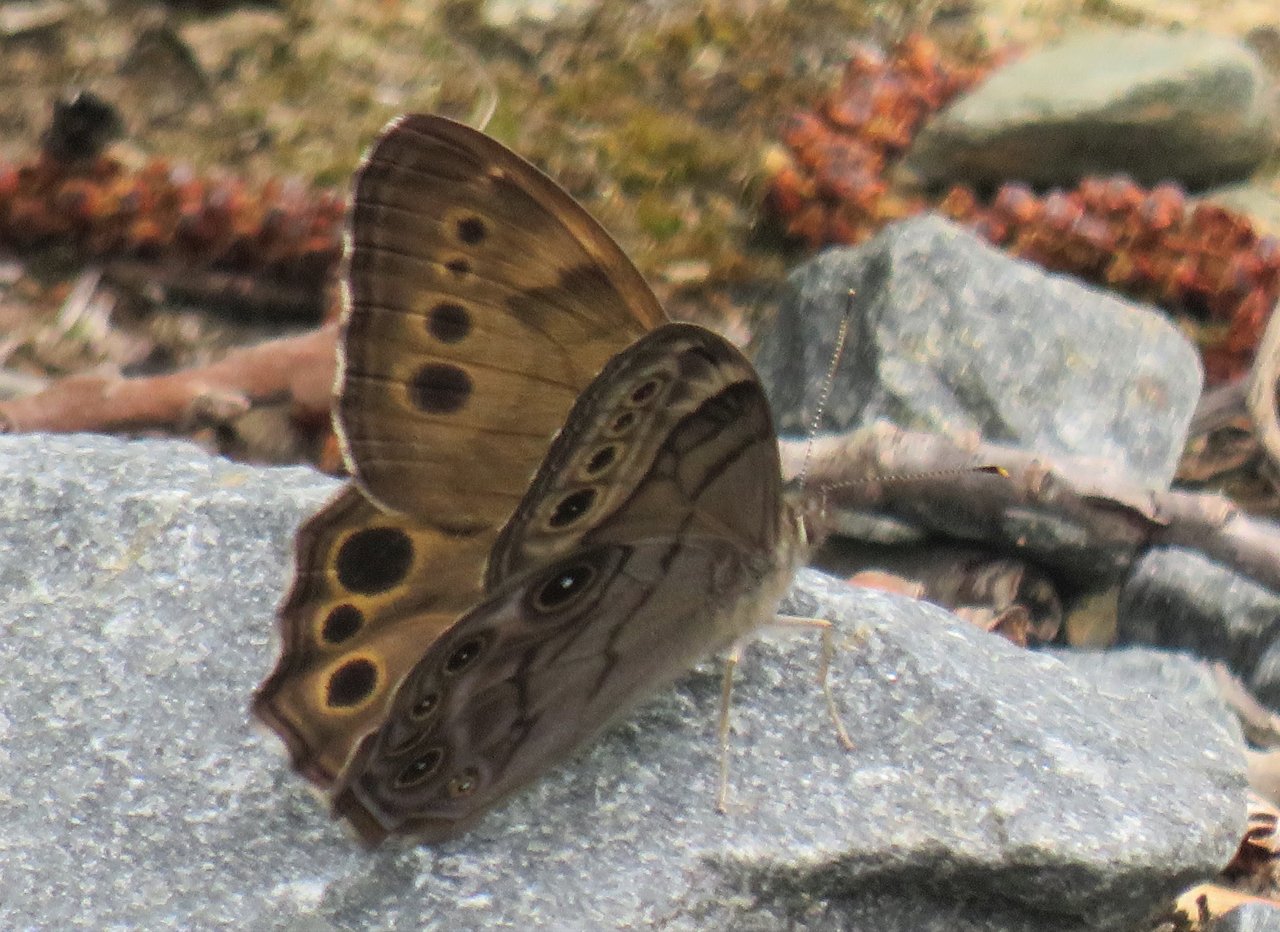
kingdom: Animalia
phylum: Arthropoda
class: Insecta
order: Lepidoptera
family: Nymphalidae
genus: Lethe
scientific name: Lethe anthedon
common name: Northern Pearly-Eye
